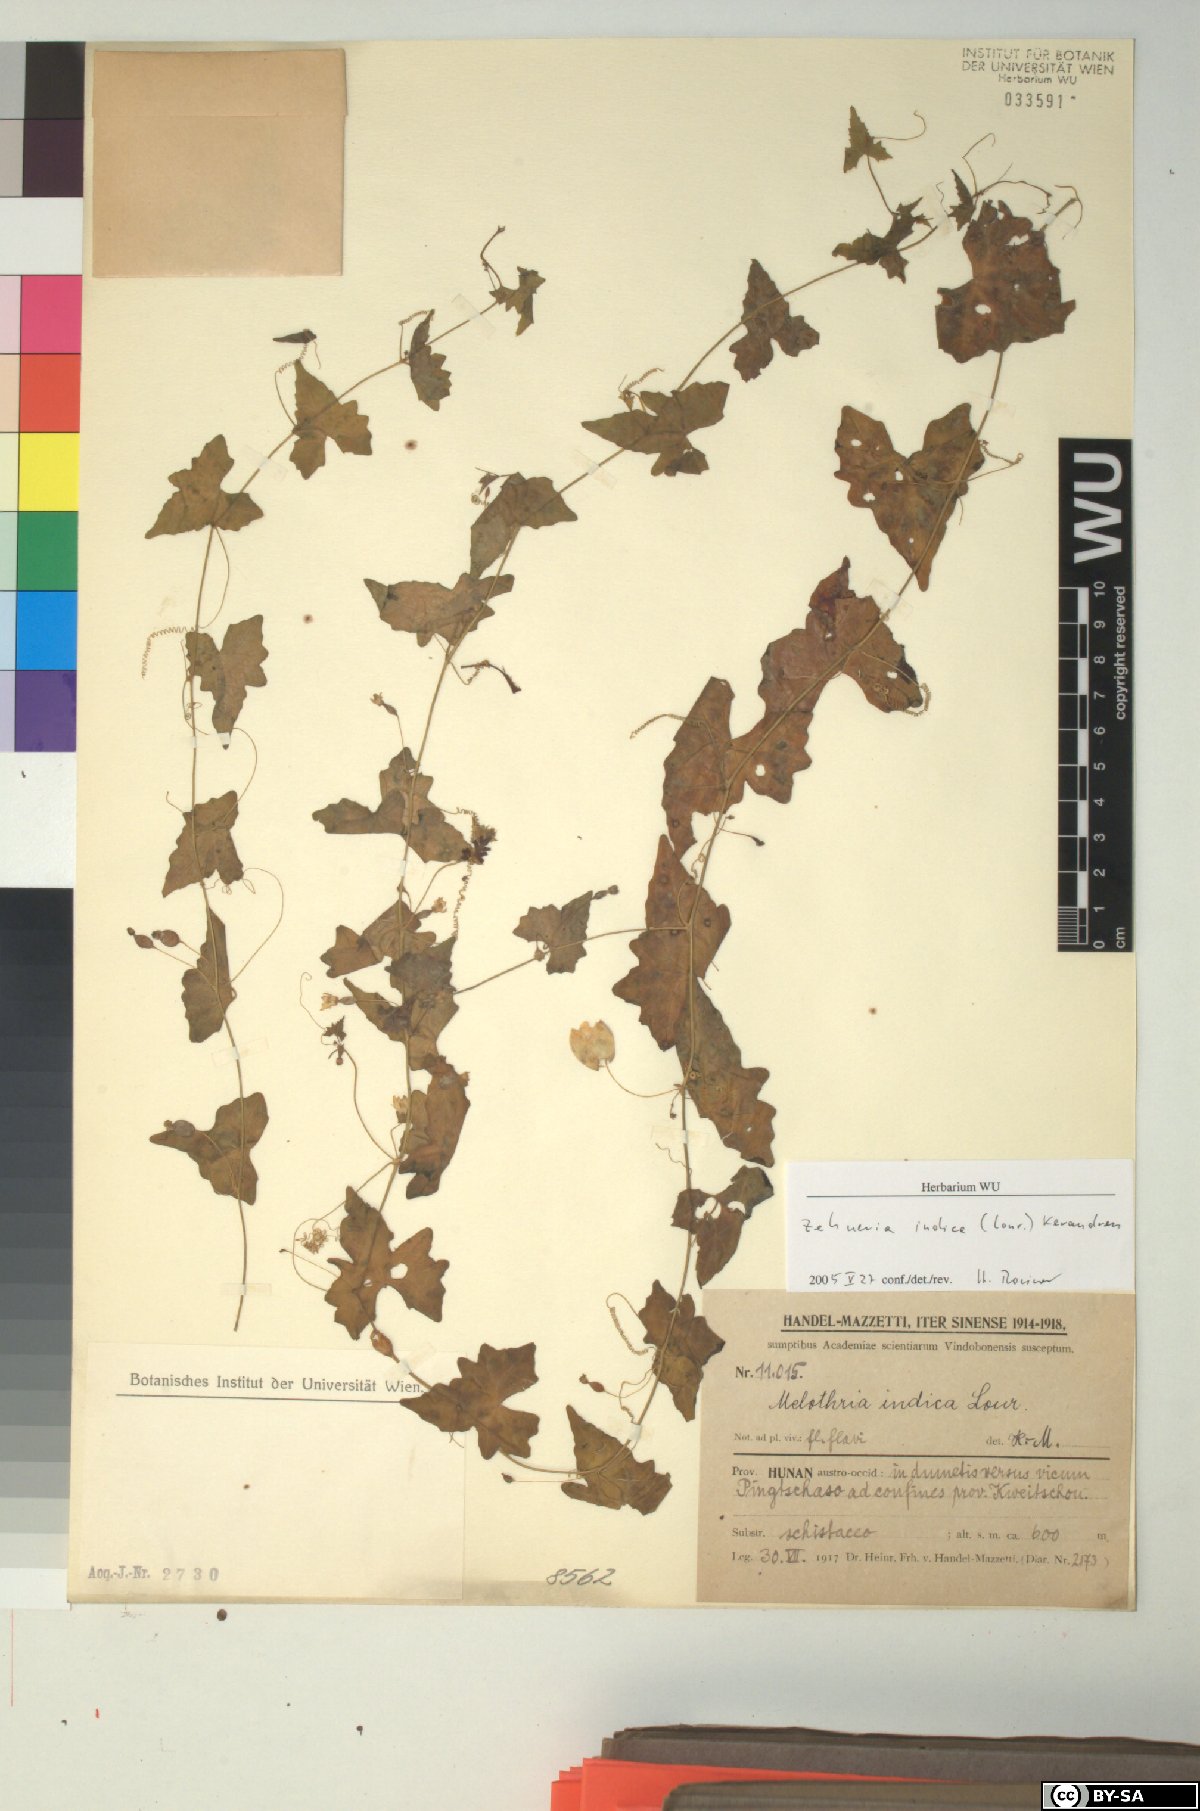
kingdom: Plantae
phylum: Tracheophyta
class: Magnoliopsida
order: Cucurbitales
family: Cucurbitaceae
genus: Zehneria
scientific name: Zehneria odorata
